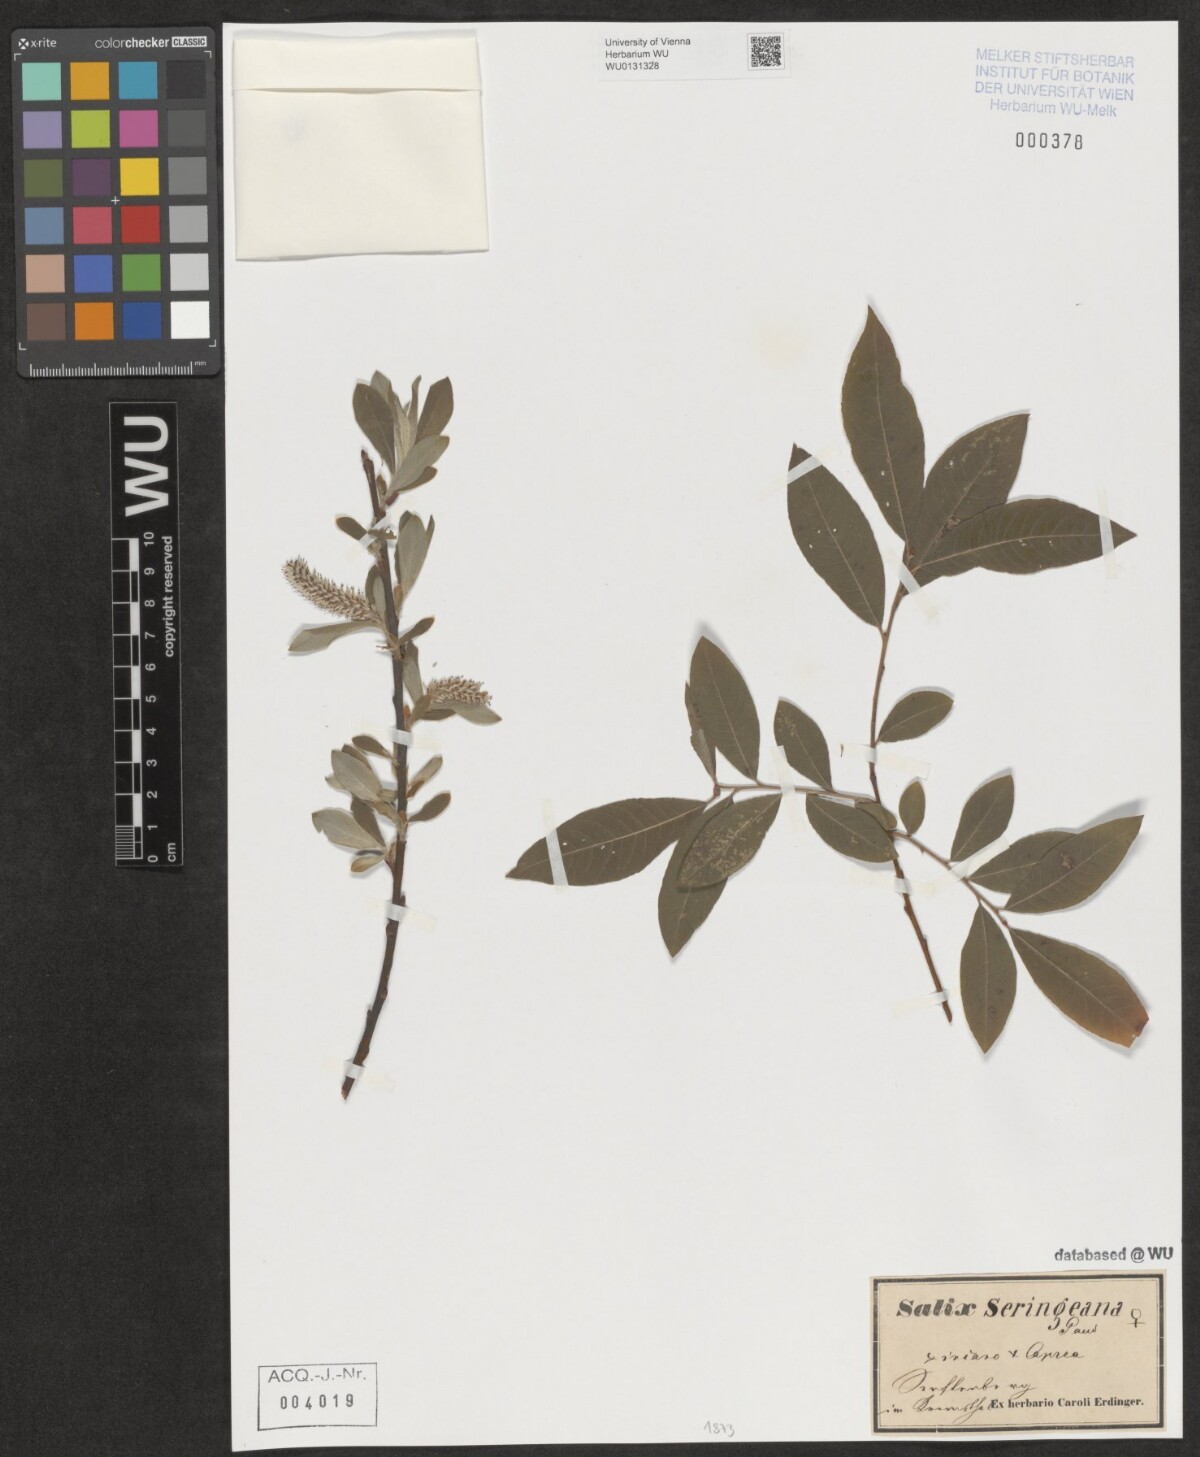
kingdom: Plantae
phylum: Tracheophyta
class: Magnoliopsida
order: Malpighiales
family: Salicaceae
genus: Salix
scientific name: Salix seringeana
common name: Seringe willow
